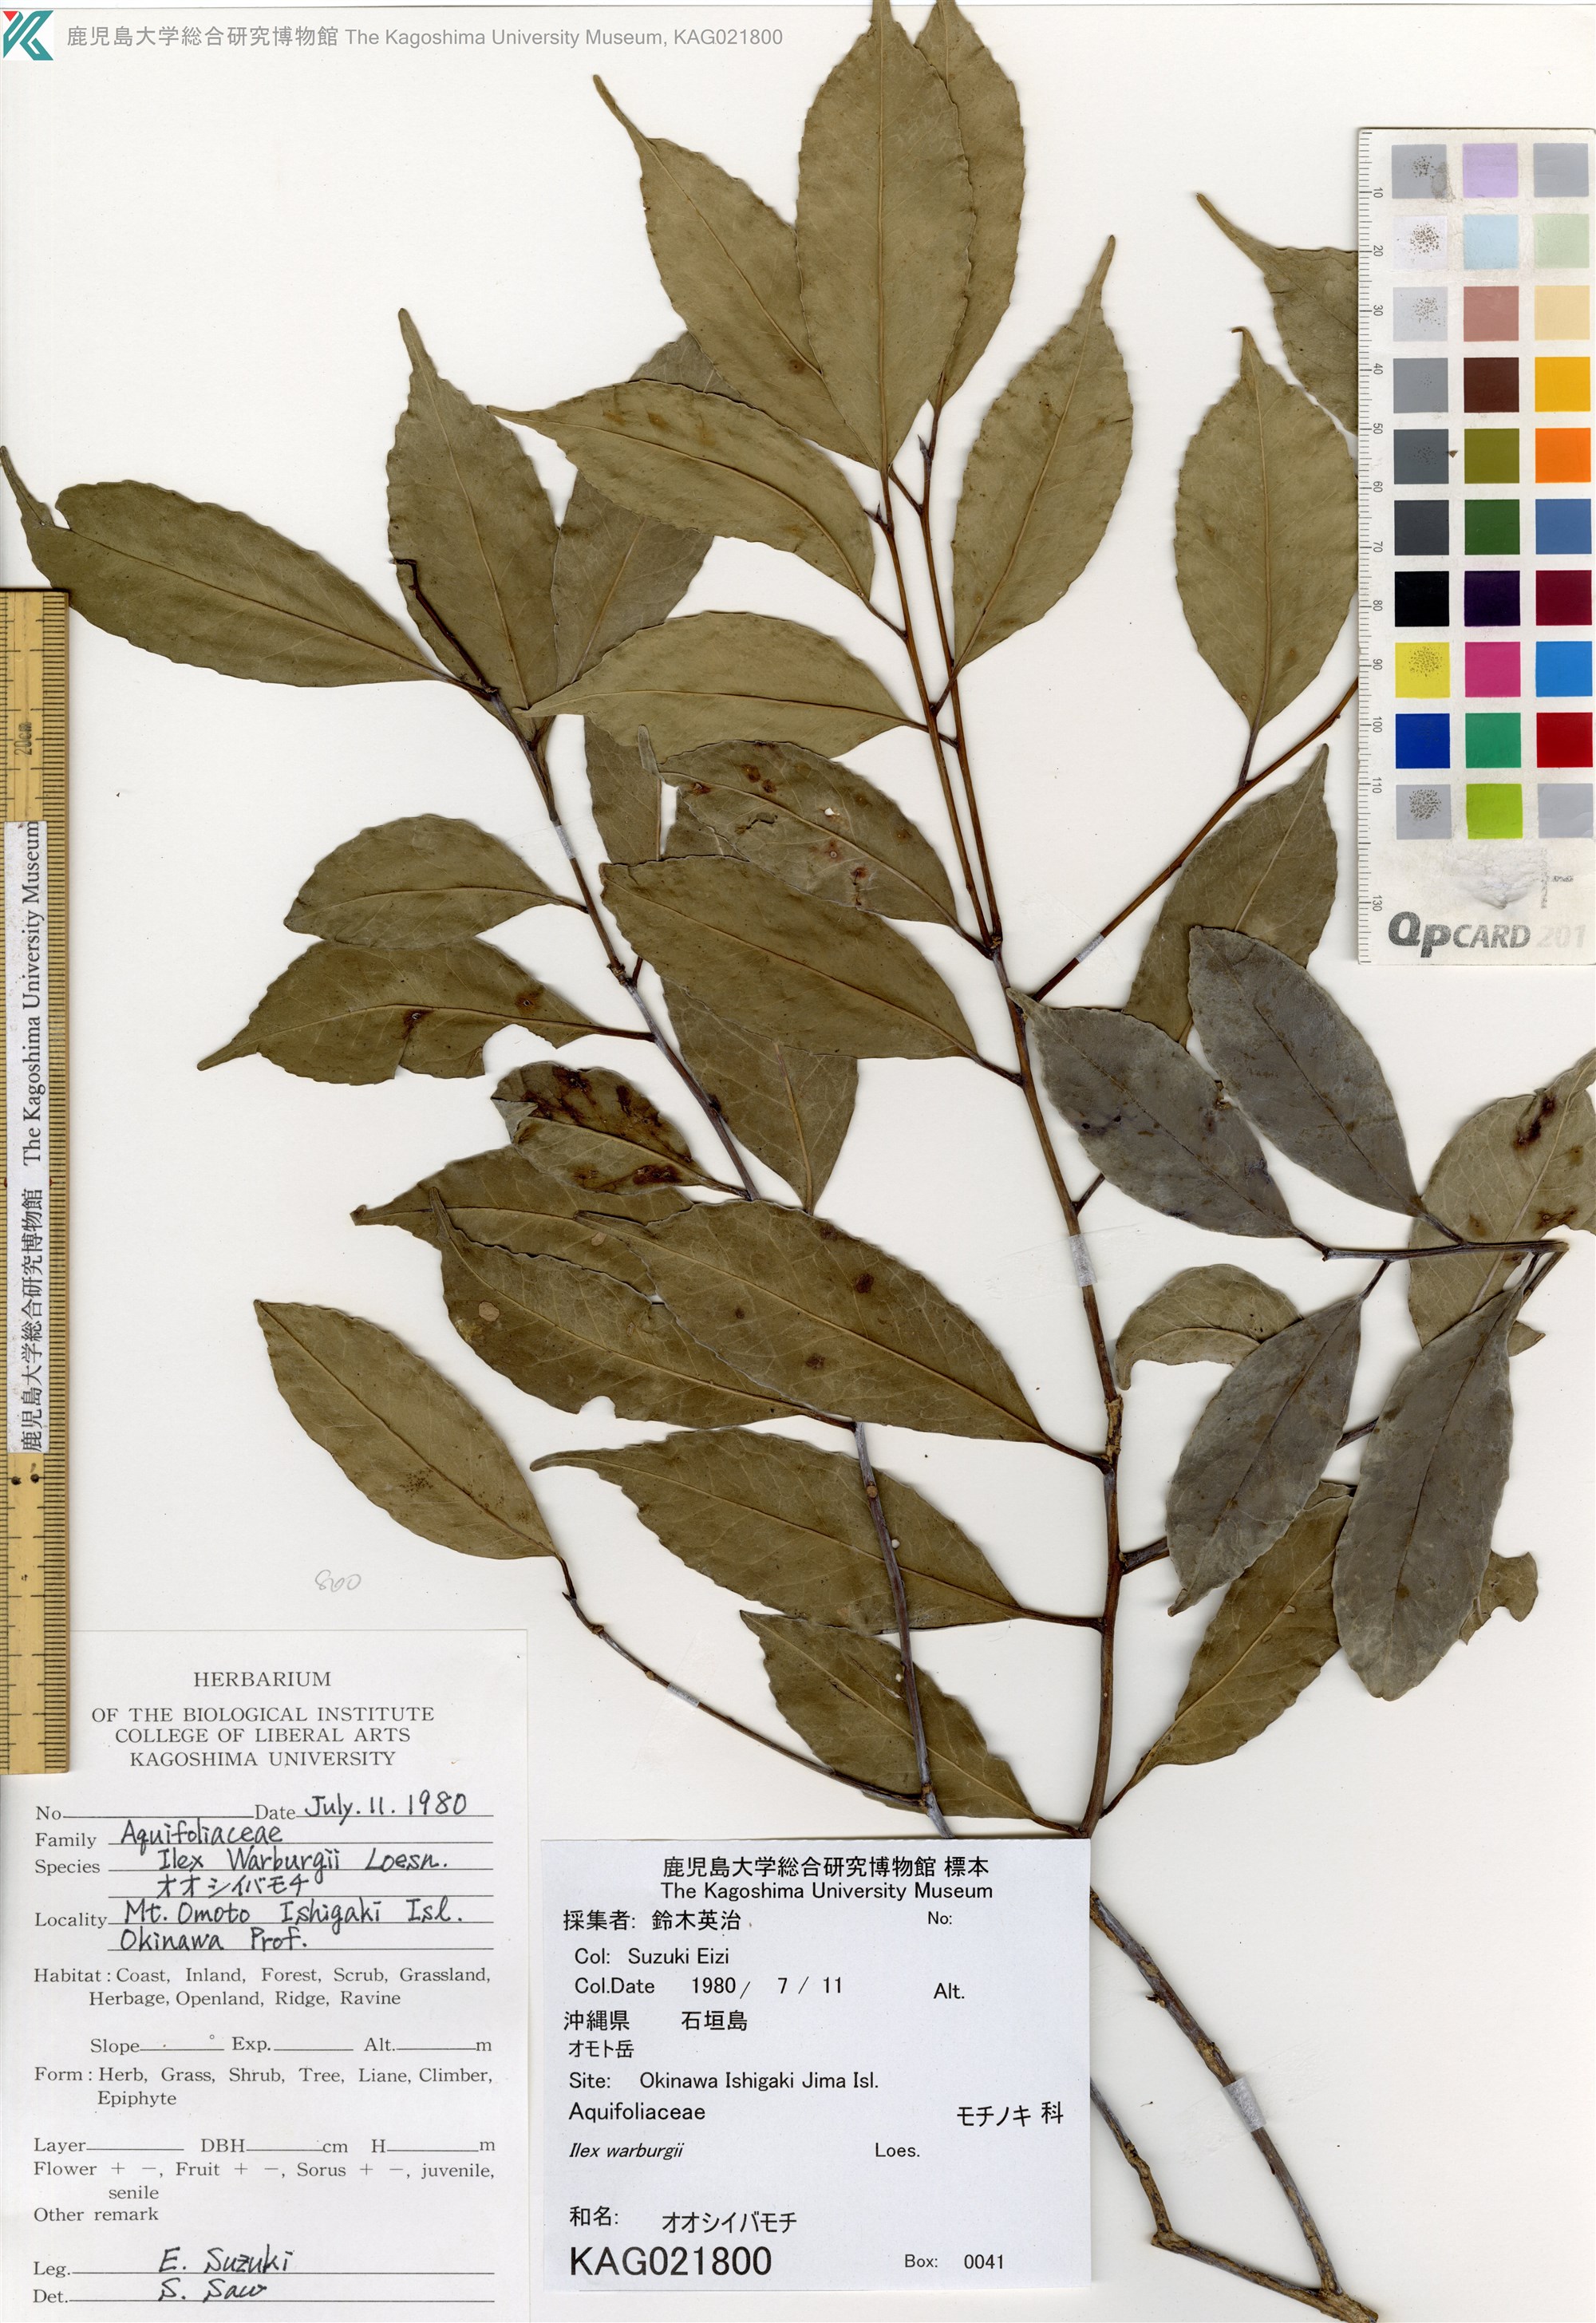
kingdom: Plantae
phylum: Tracheophyta
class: Magnoliopsida
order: Aquifoliales
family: Aquifoliaceae
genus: Ilex
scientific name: Ilex warburgii
